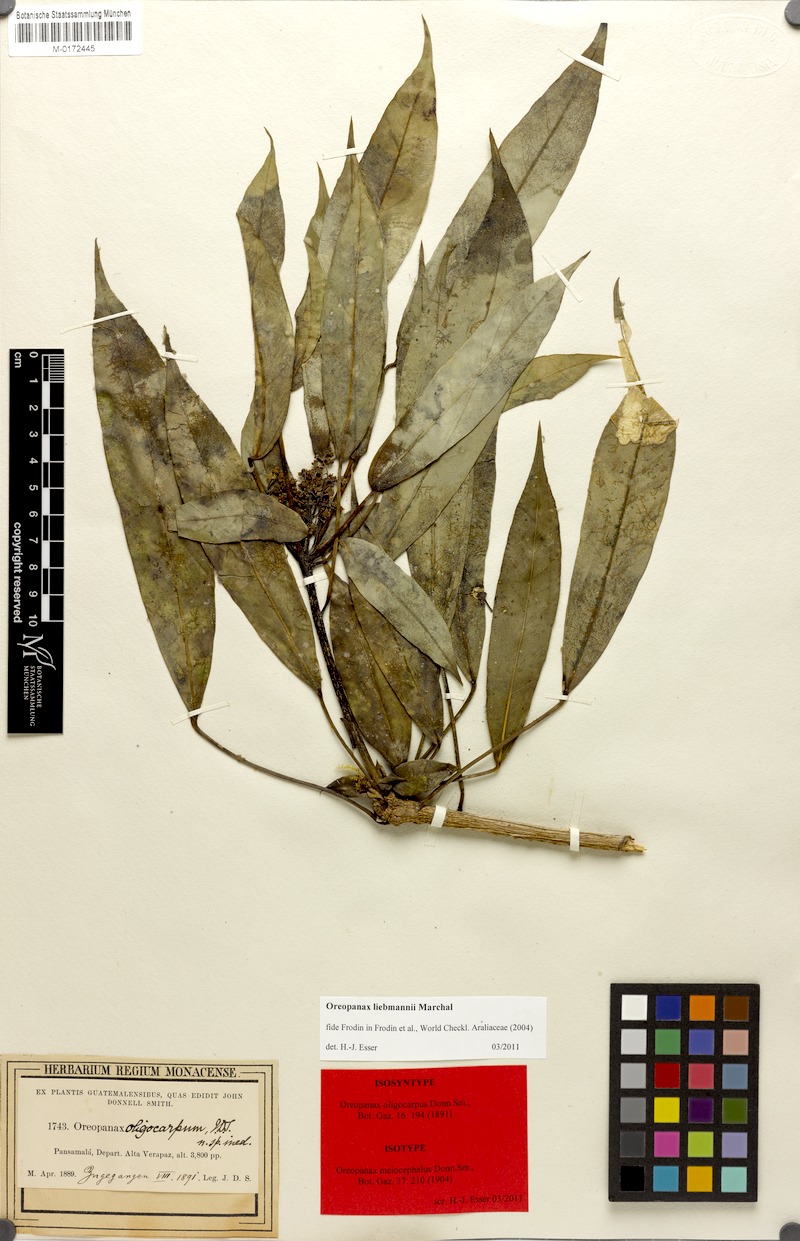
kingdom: Plantae
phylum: Tracheophyta
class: Magnoliopsida
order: Apiales
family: Araliaceae
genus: Oreopanax
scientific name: Oreopanax capitatus
